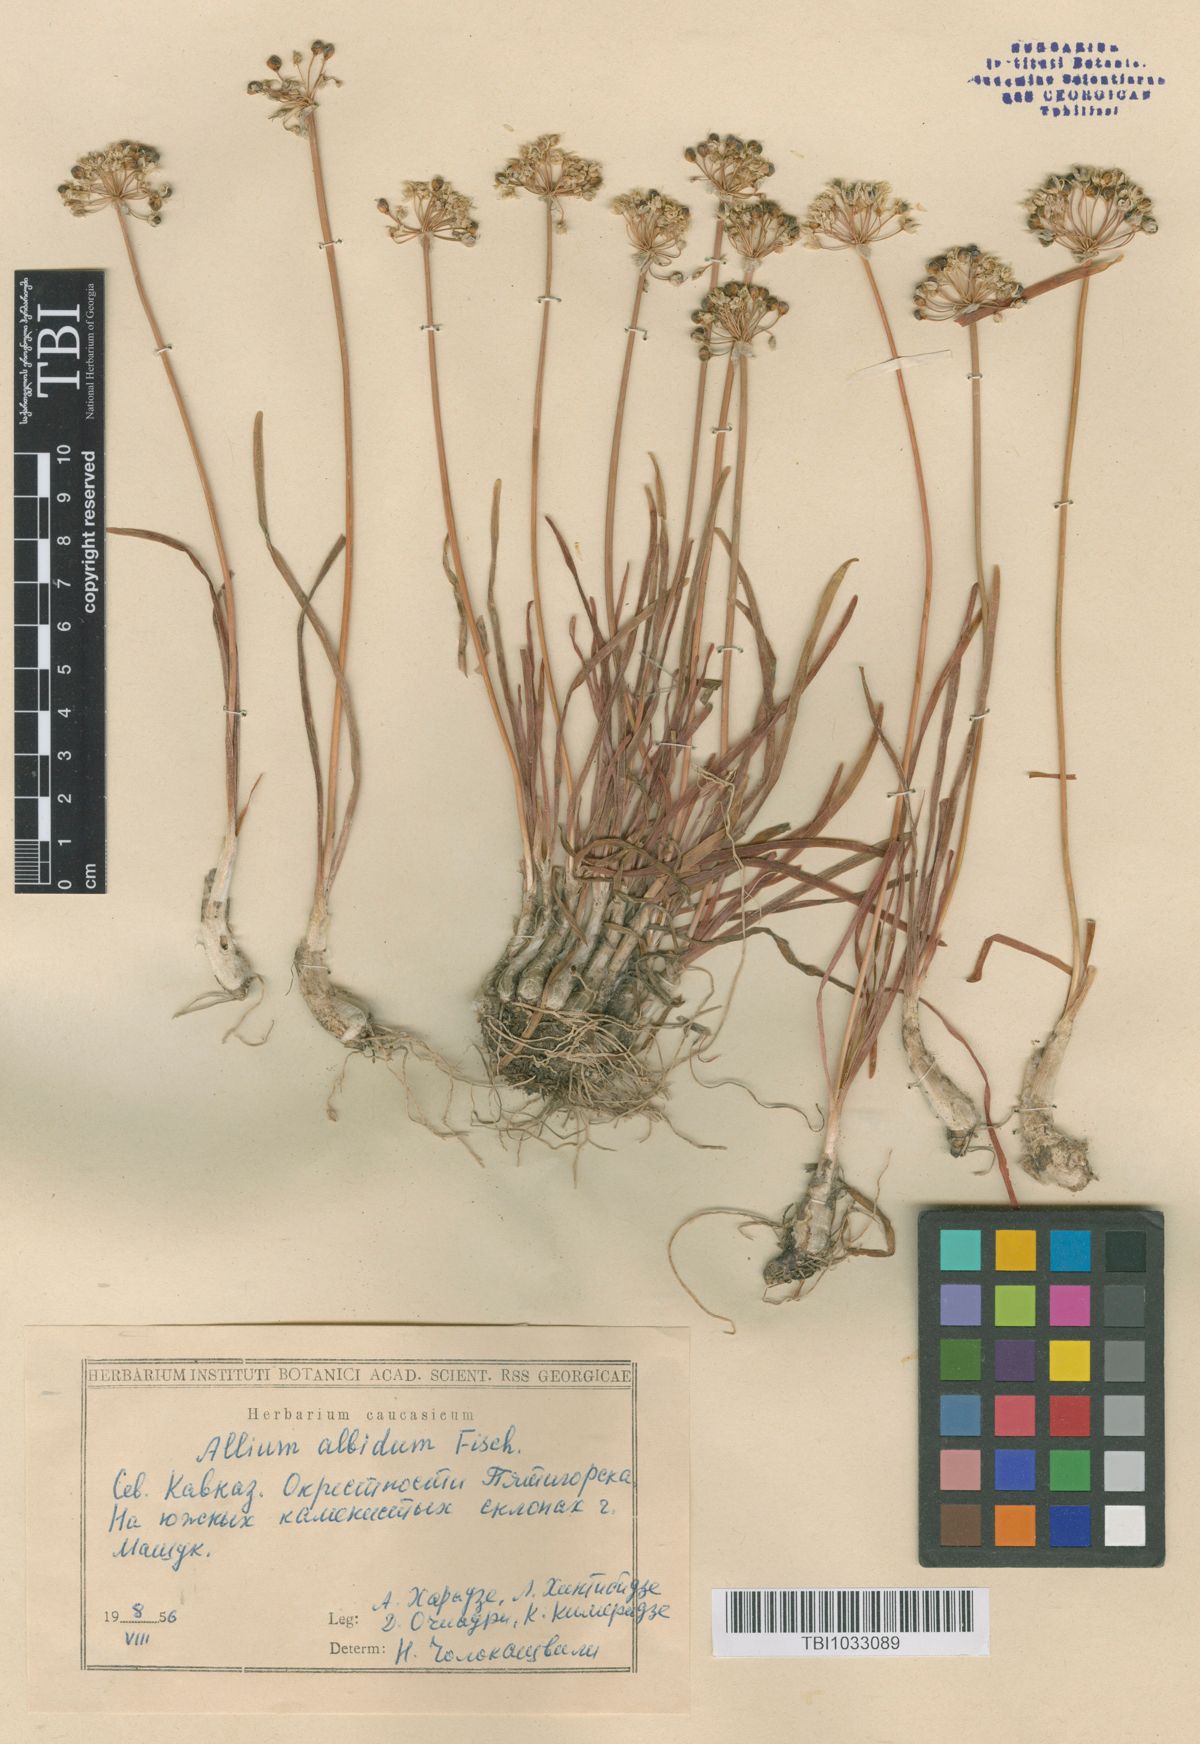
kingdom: Plantae
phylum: Tracheophyta
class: Liliopsida
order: Asparagales
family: Amaryllidaceae
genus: Allium
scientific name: Allium denudatum
